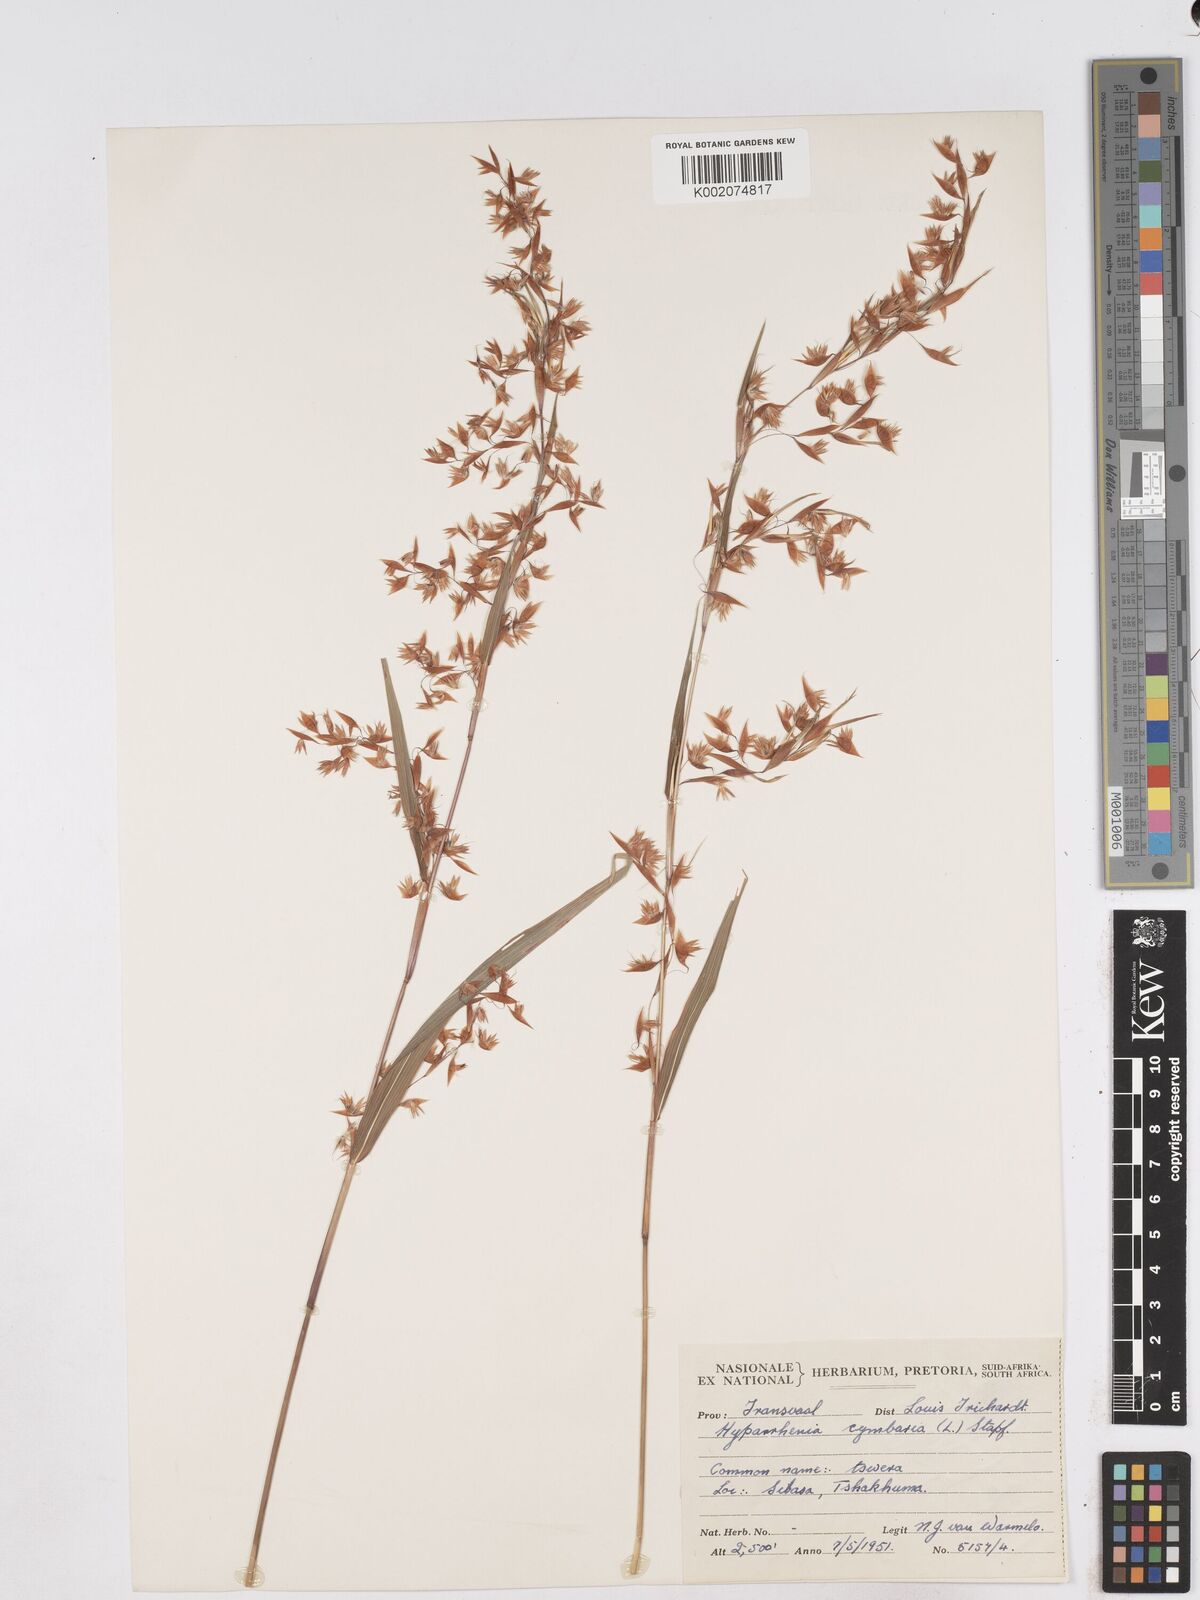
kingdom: Plantae
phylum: Tracheophyta
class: Liliopsida
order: Poales
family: Poaceae
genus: Hyparrhenia
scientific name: Hyparrhenia cymbaria
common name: Boat thatching grass
